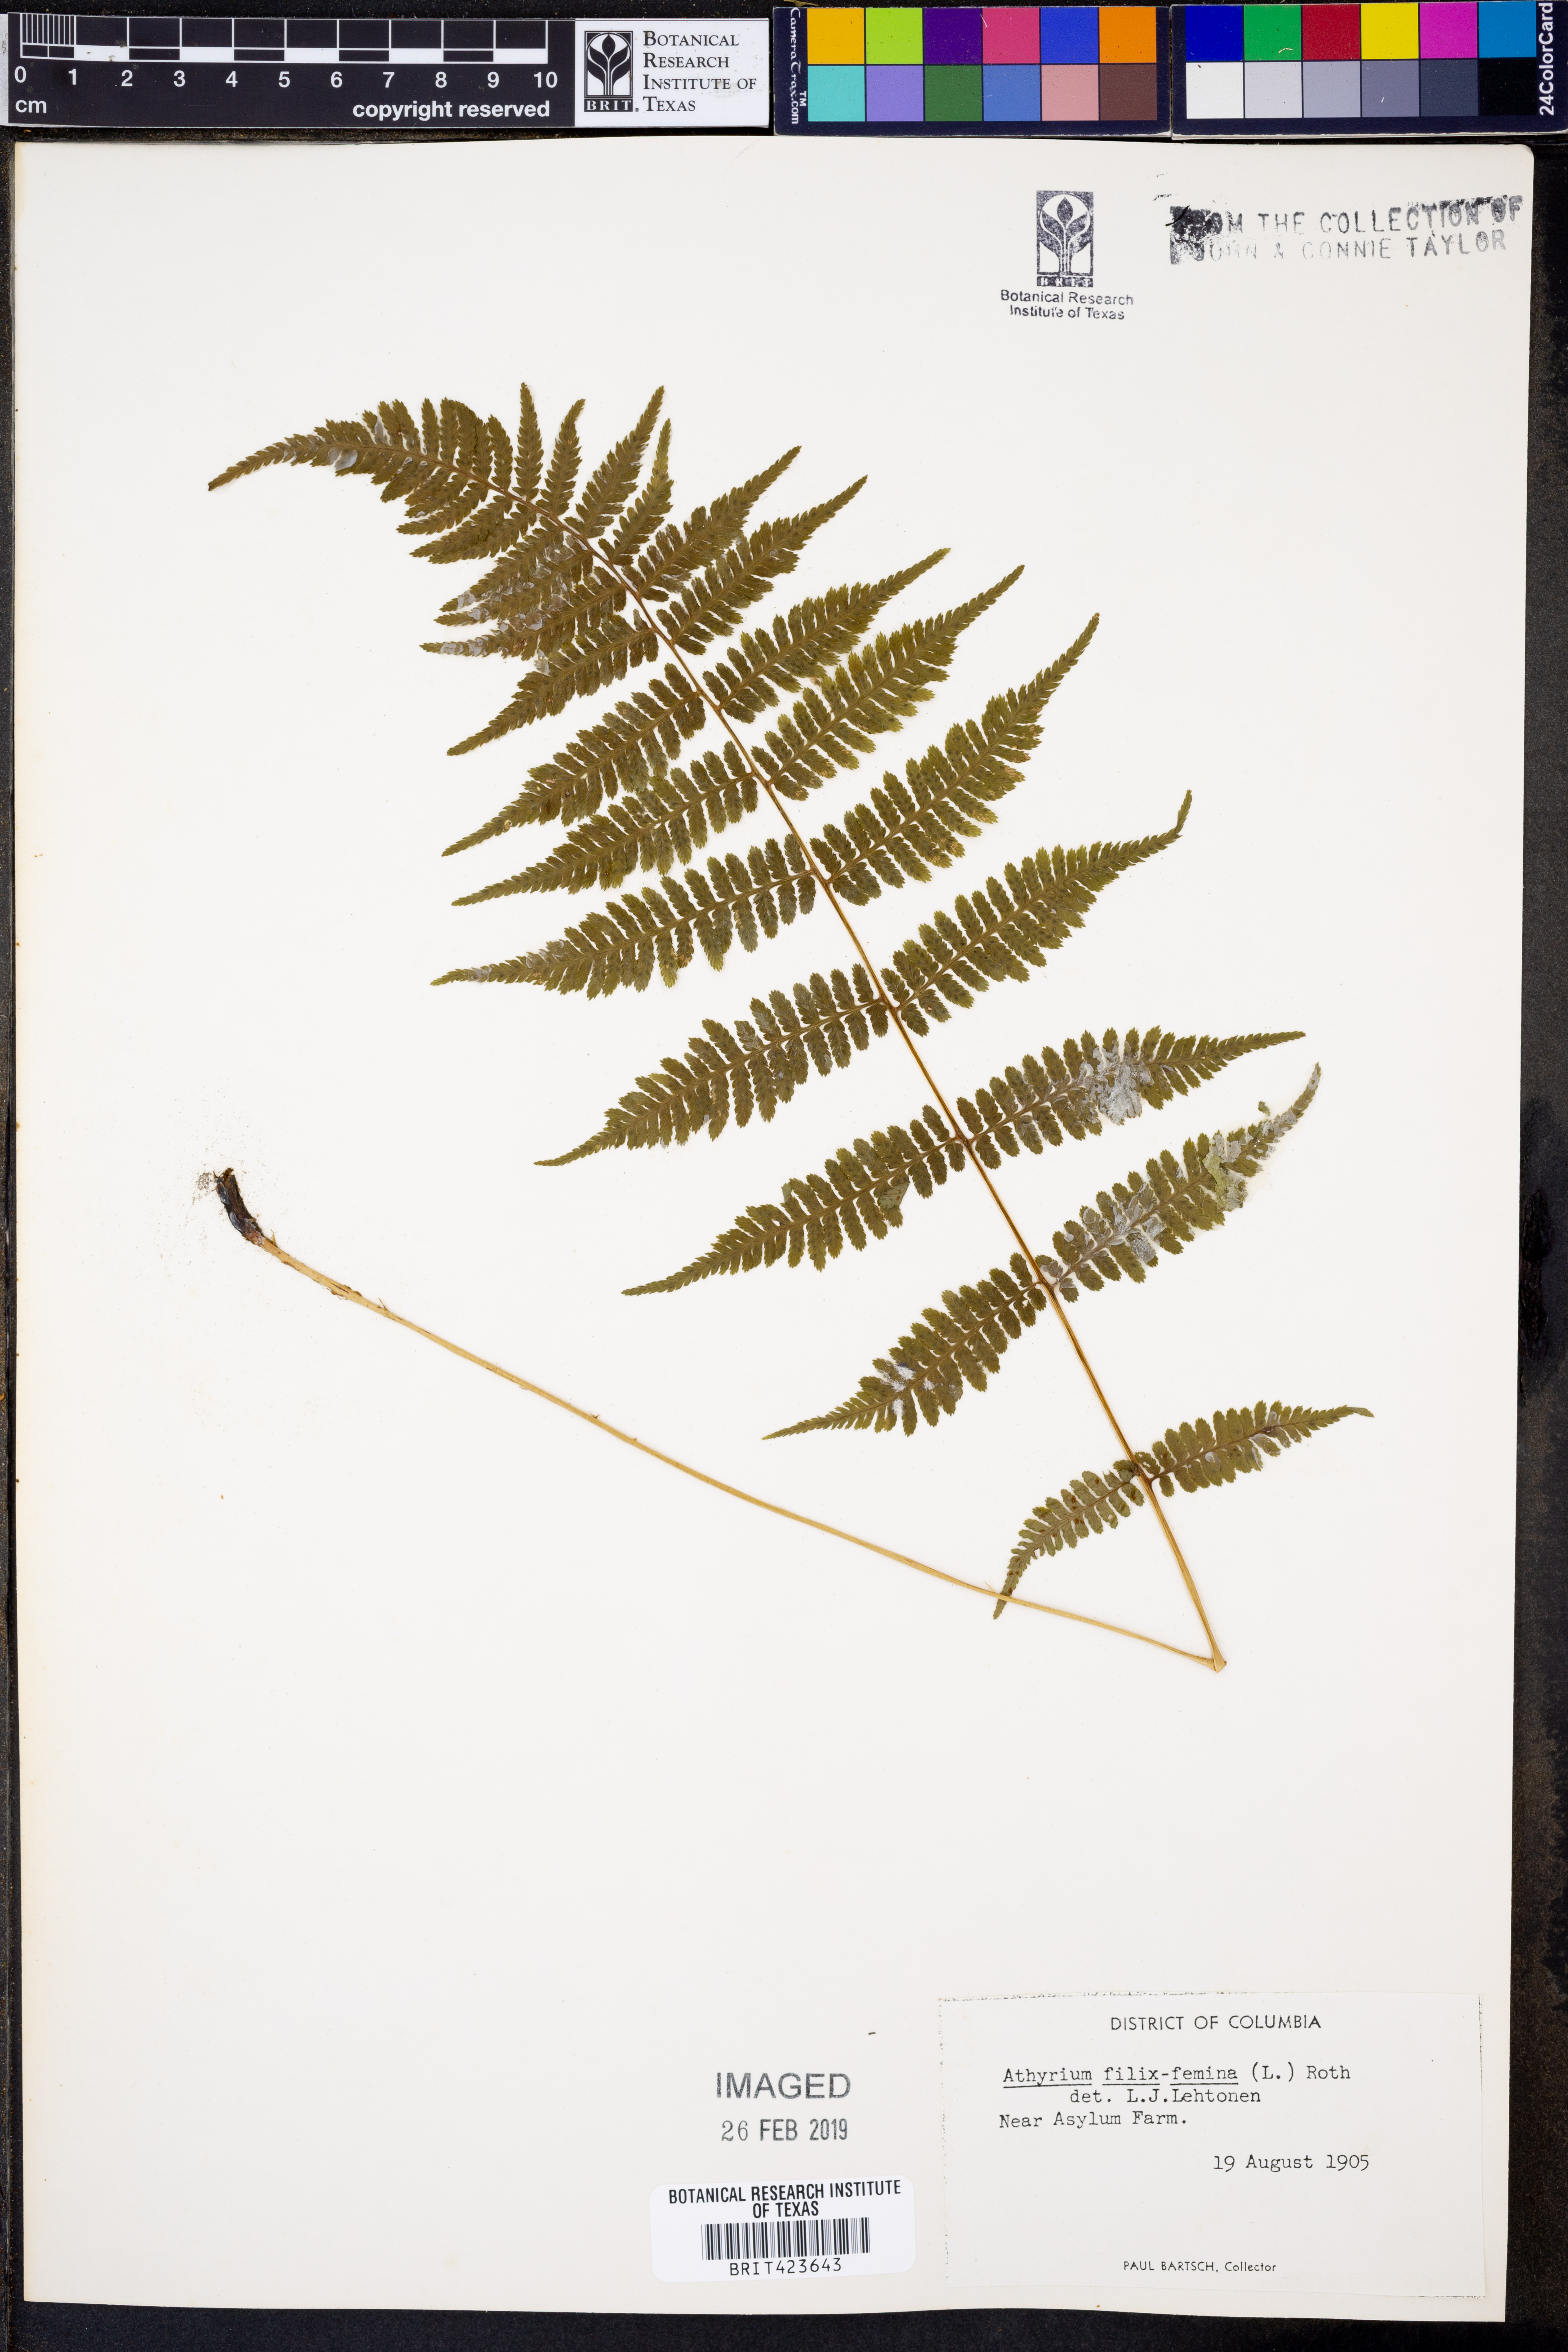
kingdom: Plantae
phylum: Tracheophyta
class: Polypodiopsida
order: Polypodiales
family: Athyriaceae
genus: Athyrium
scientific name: Athyrium filix-femina
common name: Lady fern
